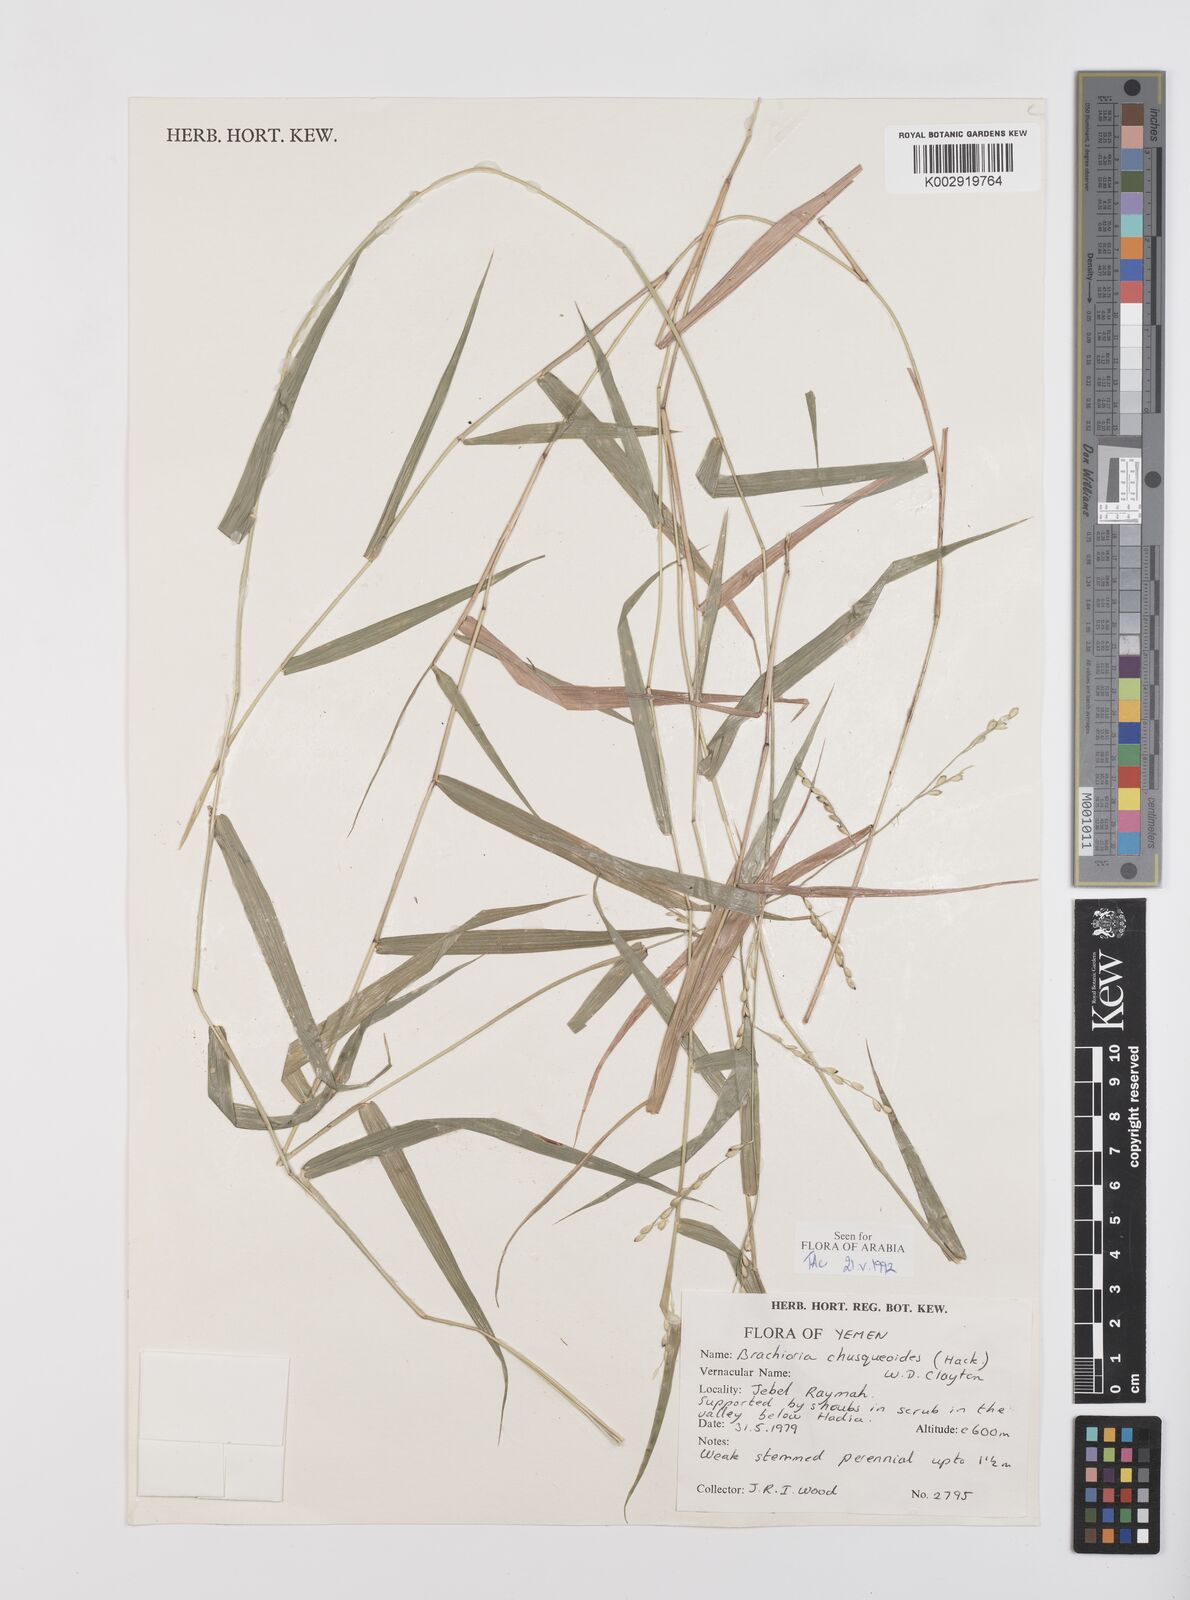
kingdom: Plantae
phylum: Tracheophyta
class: Liliopsida
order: Poales
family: Poaceae
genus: Urochloa
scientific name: Urochloa chusqueoides
